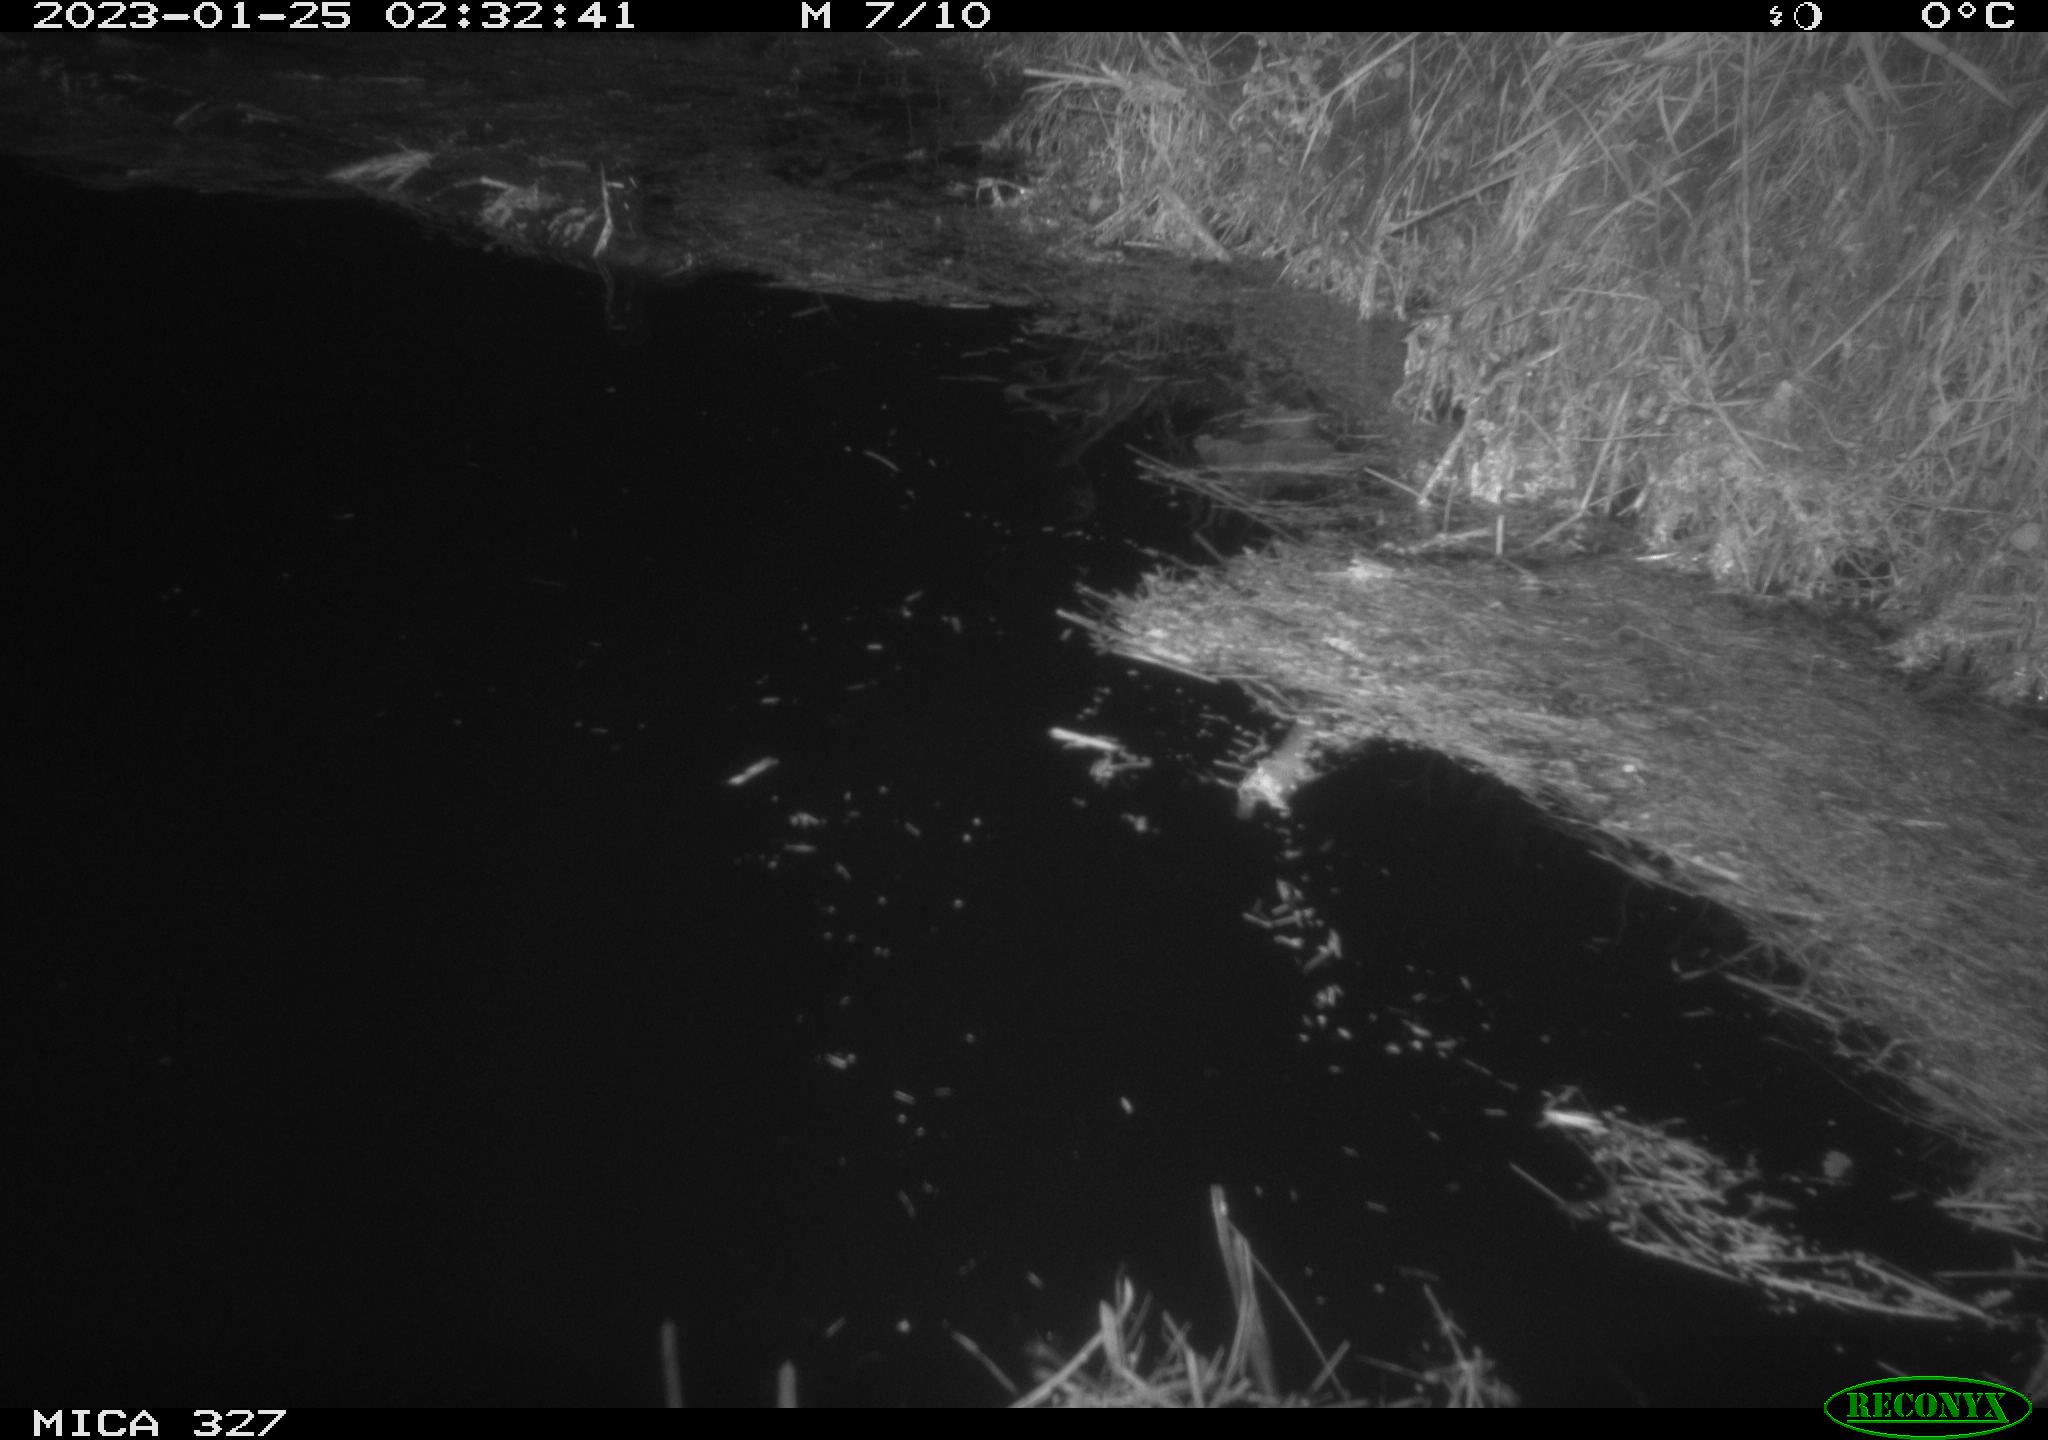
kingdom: Animalia
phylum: Chordata
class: Mammalia
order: Rodentia
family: Cricetidae
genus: Ondatra
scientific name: Ondatra zibethicus
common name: Muskrat
